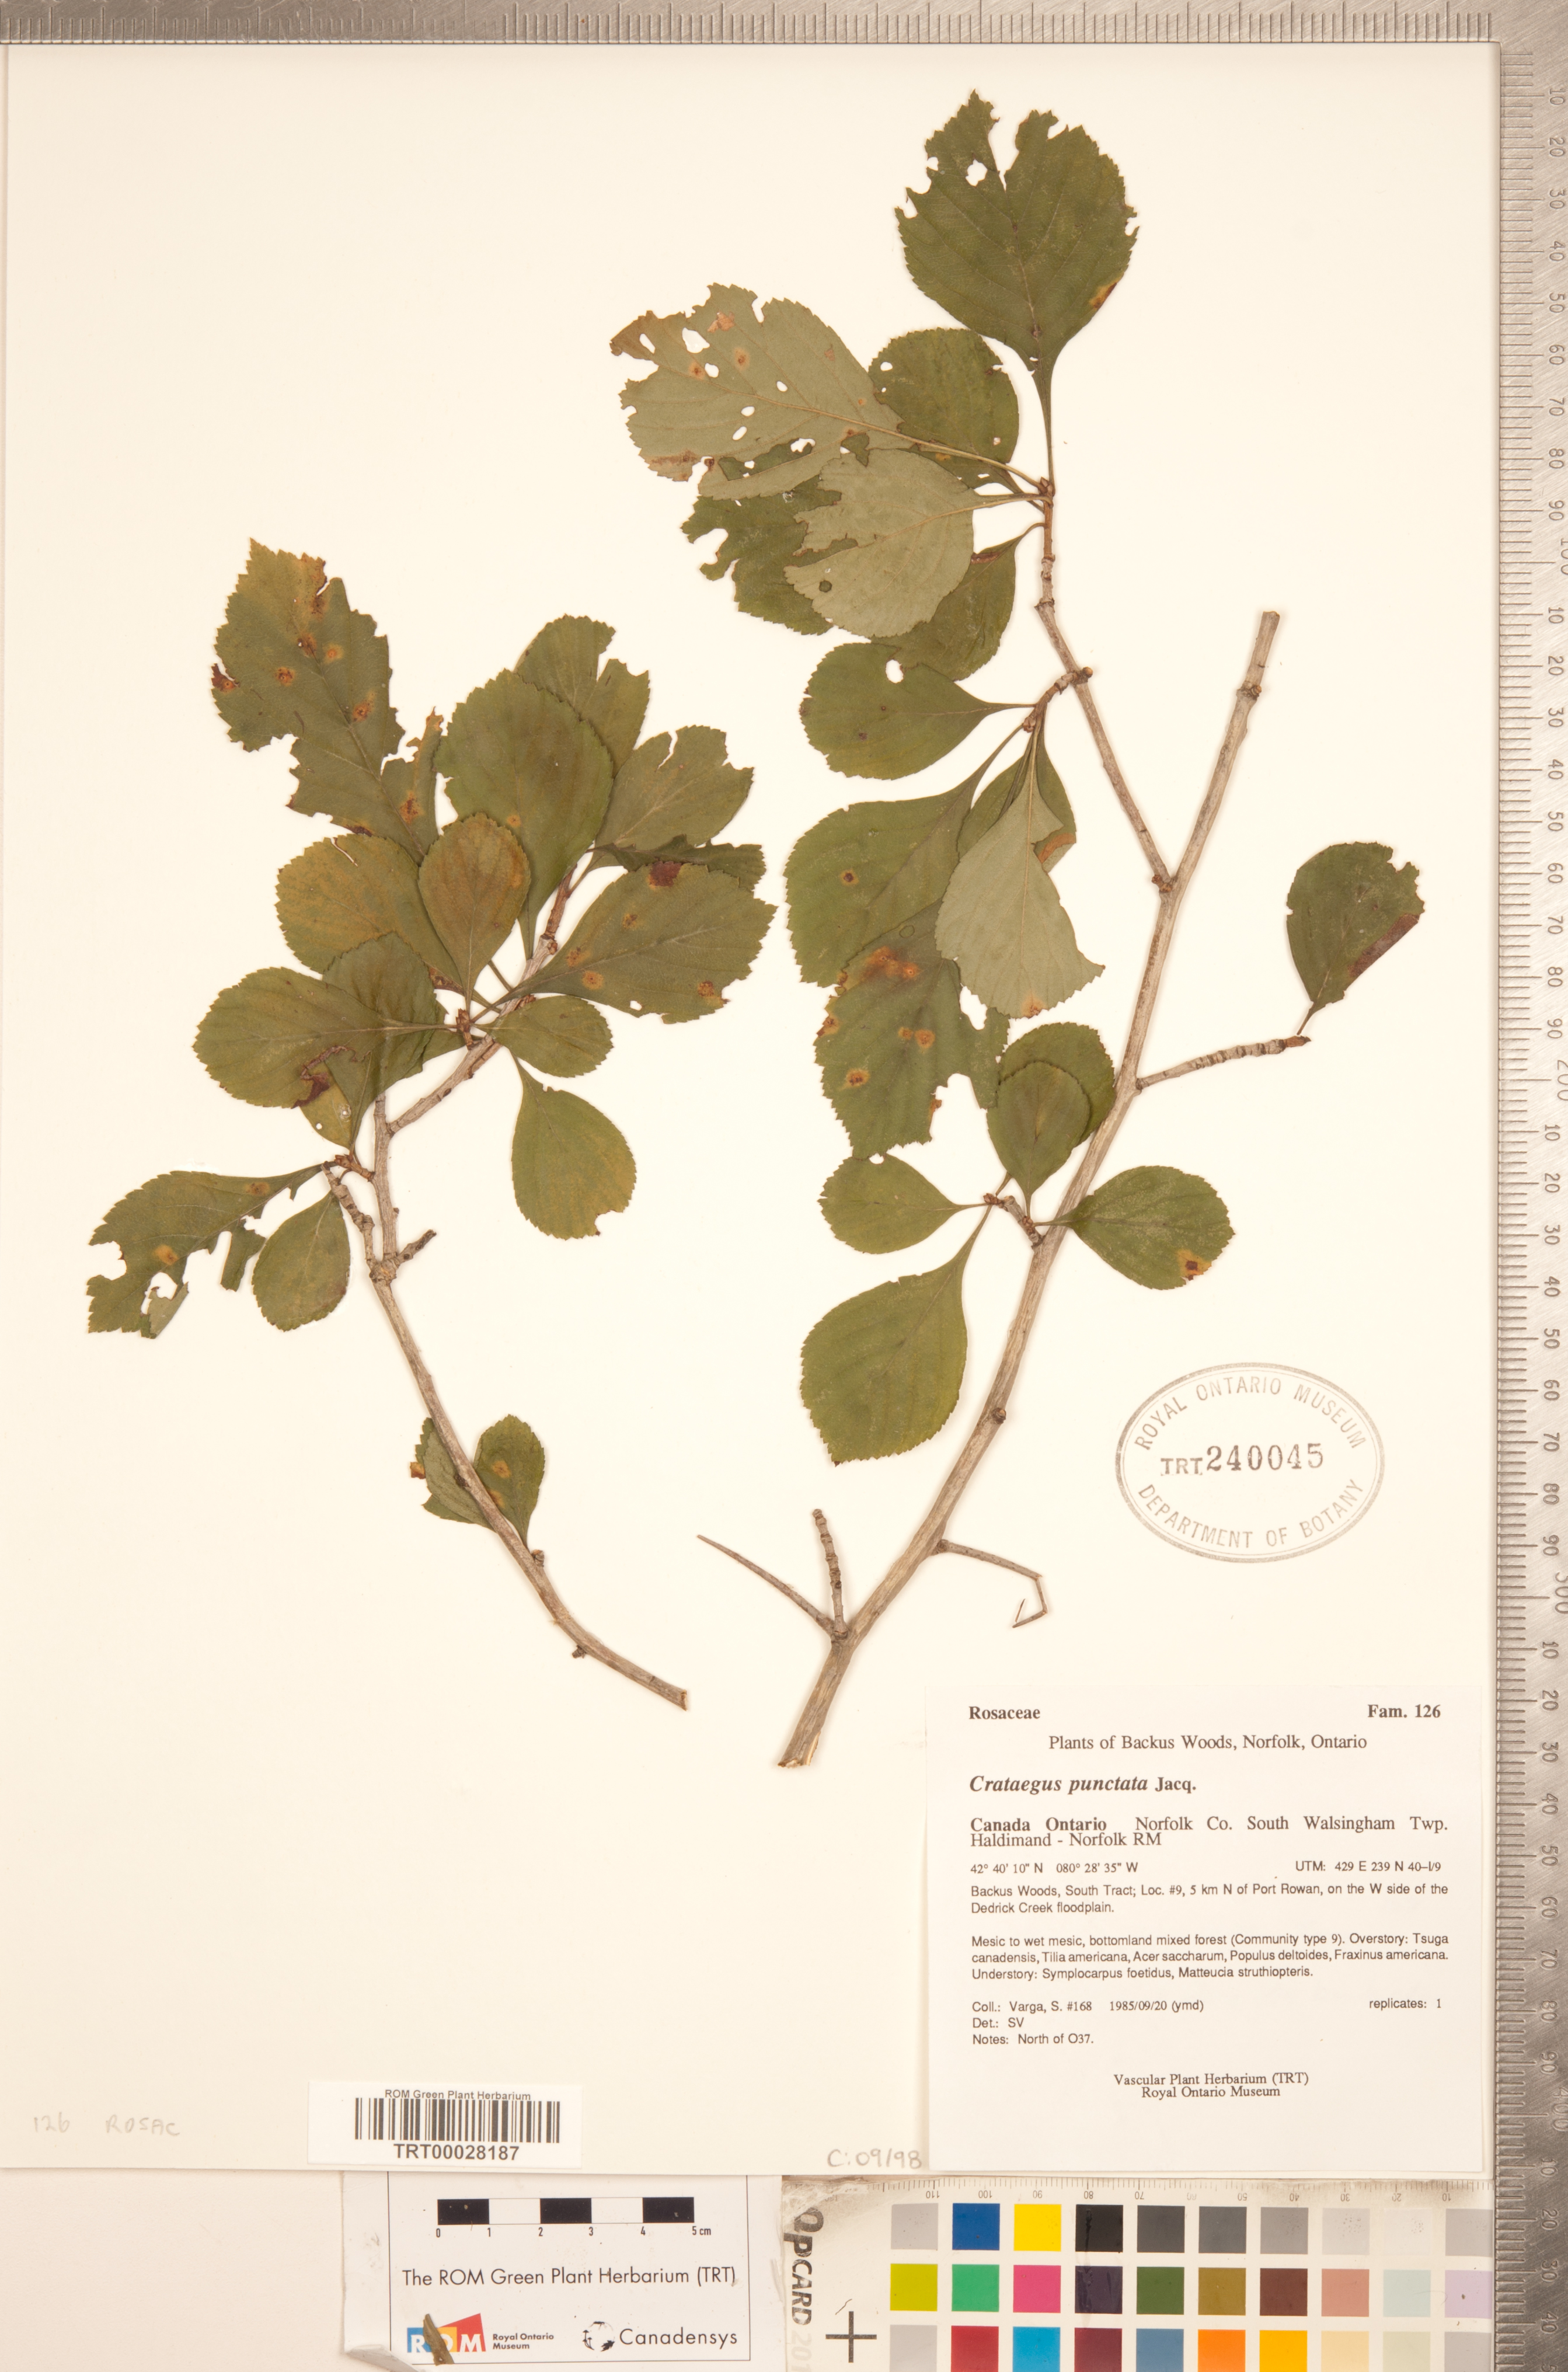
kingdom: Plantae
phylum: Tracheophyta
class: Magnoliopsida
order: Rosales
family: Rosaceae
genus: Crataegus
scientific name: Crataegus punctata
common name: Dotted hawthorn
